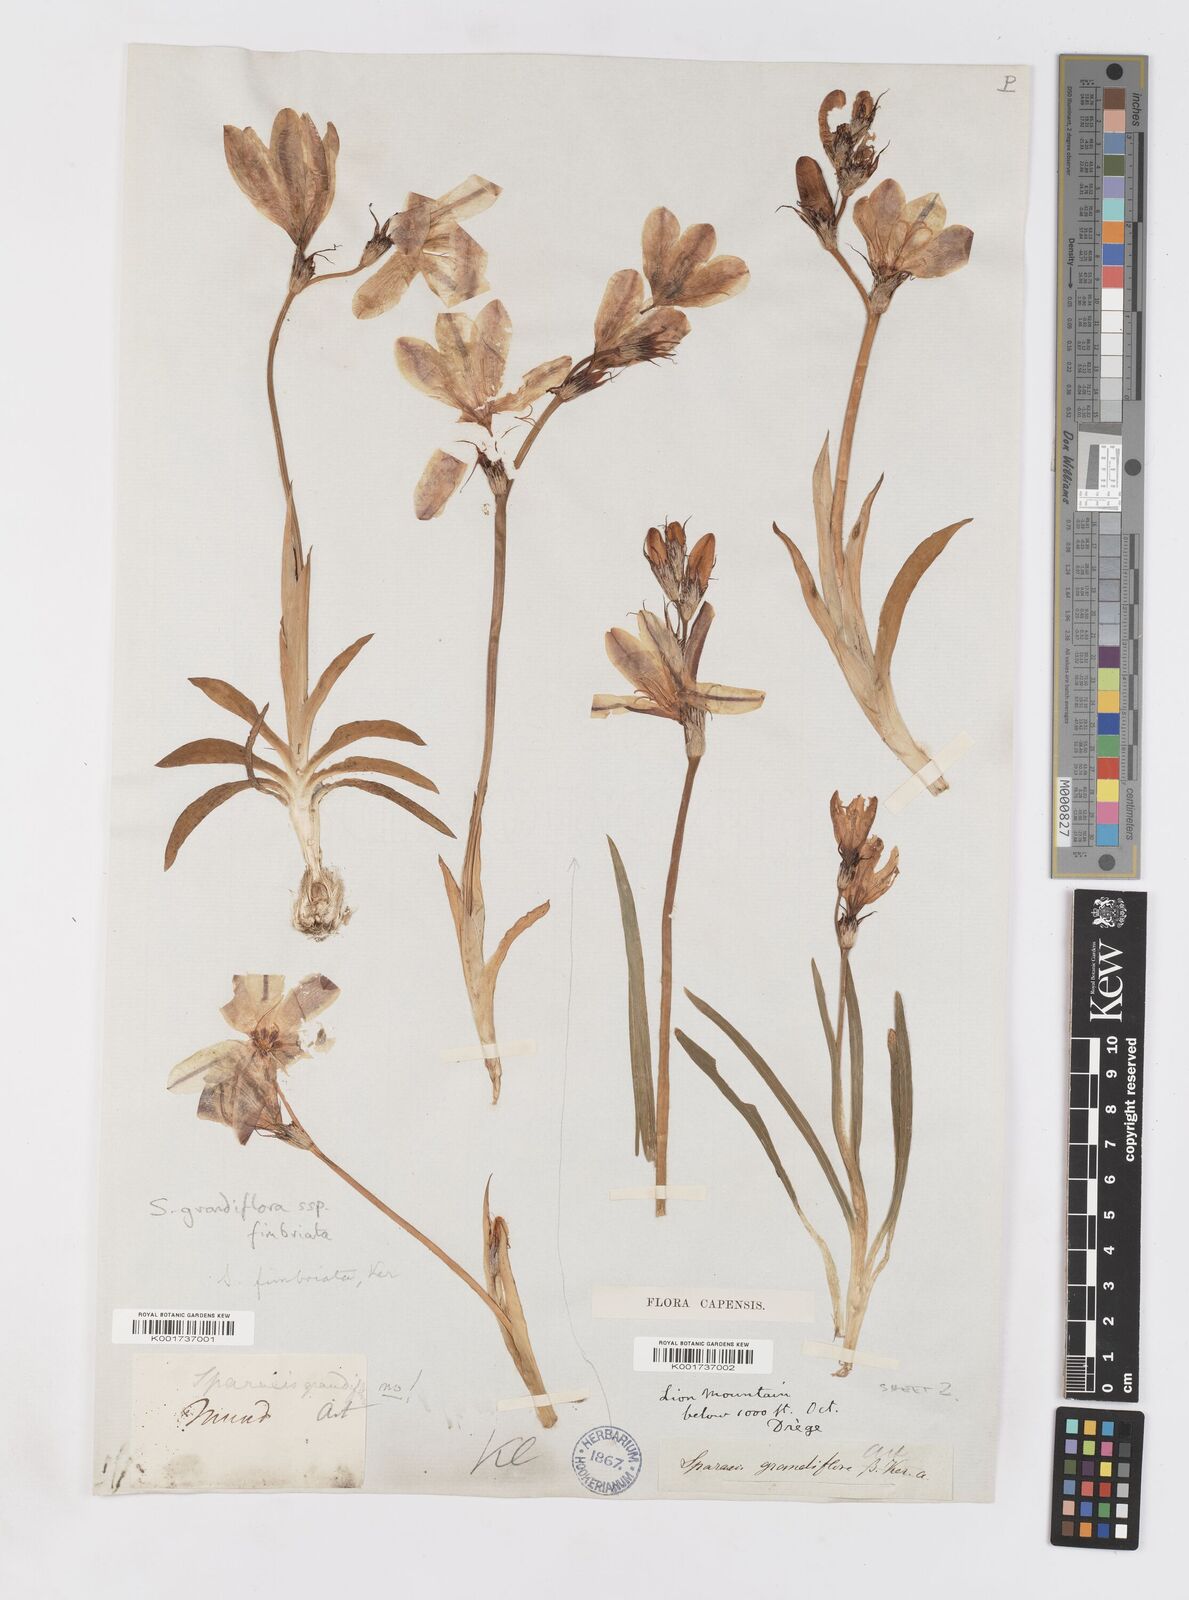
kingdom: Plantae
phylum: Tracheophyta
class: Liliopsida
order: Asparagales
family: Iridaceae
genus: Sparaxis
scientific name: Sparaxis grandiflora
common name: Plain harlequin-flower
